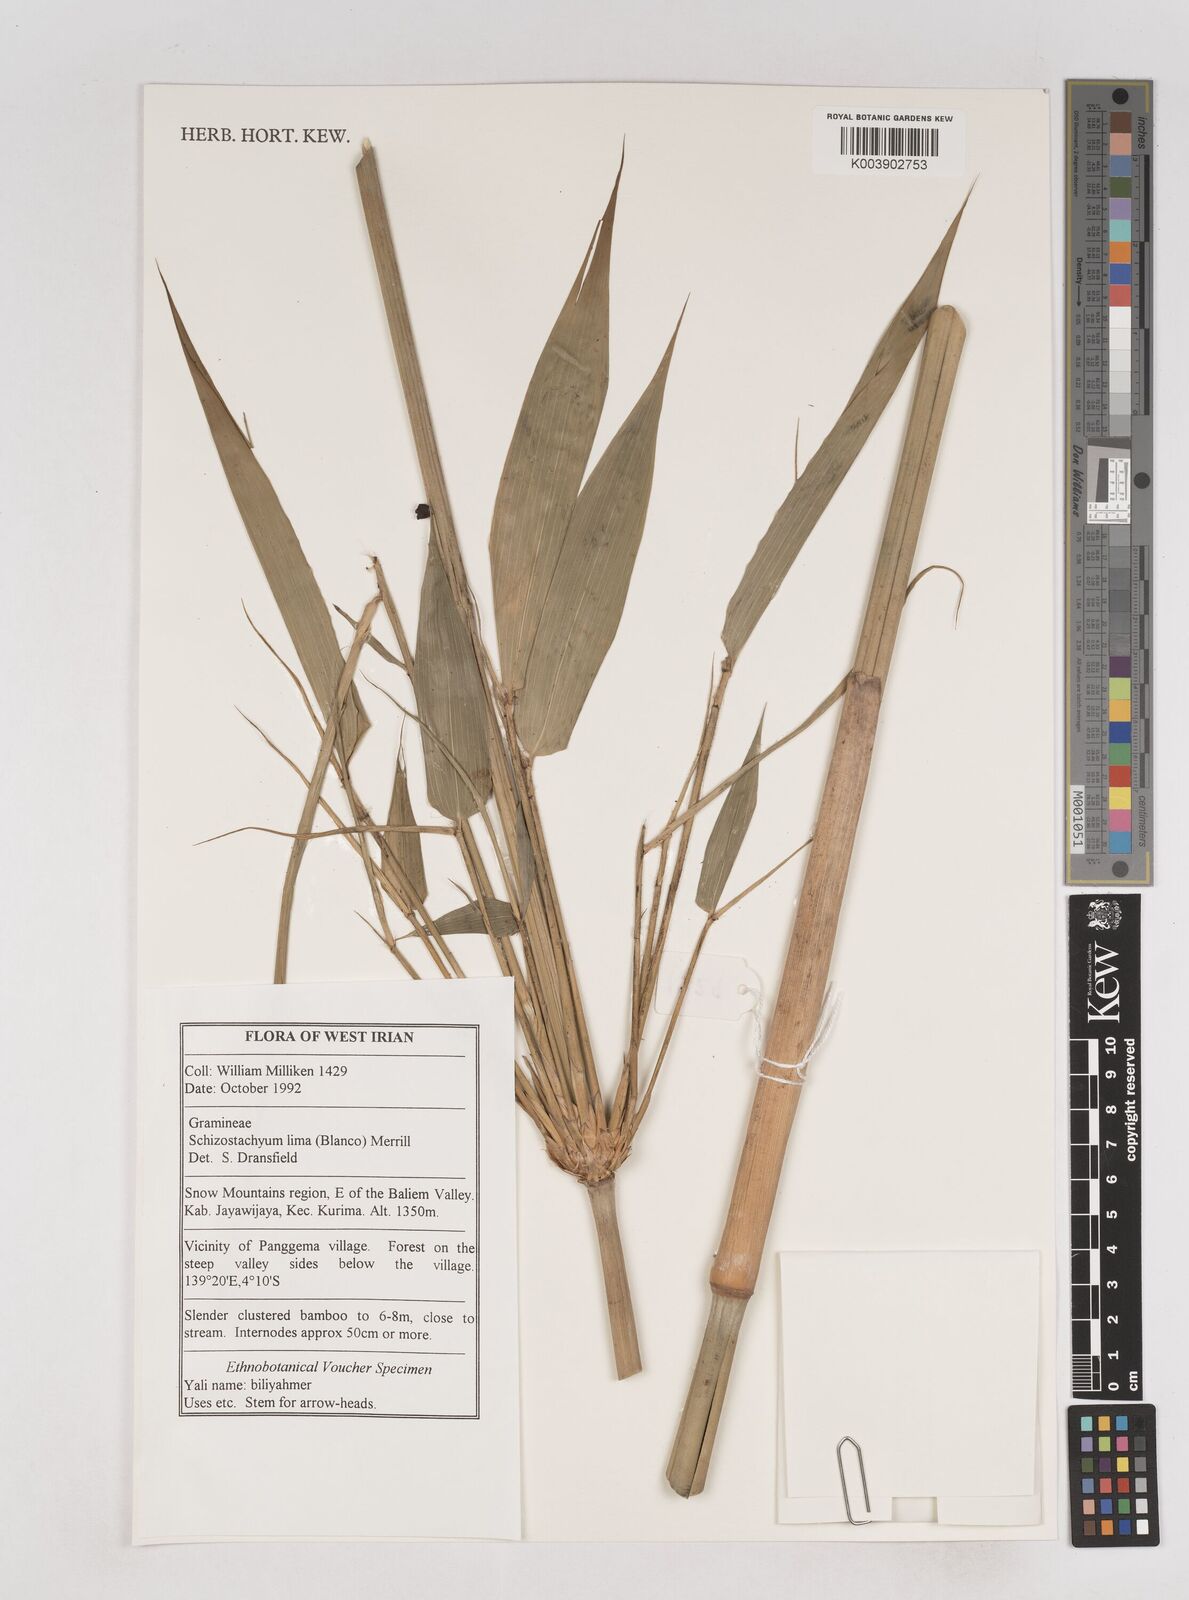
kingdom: Plantae
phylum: Tracheophyta
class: Liliopsida
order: Poales
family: Poaceae
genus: Schizostachyum
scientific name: Schizostachyum lima
